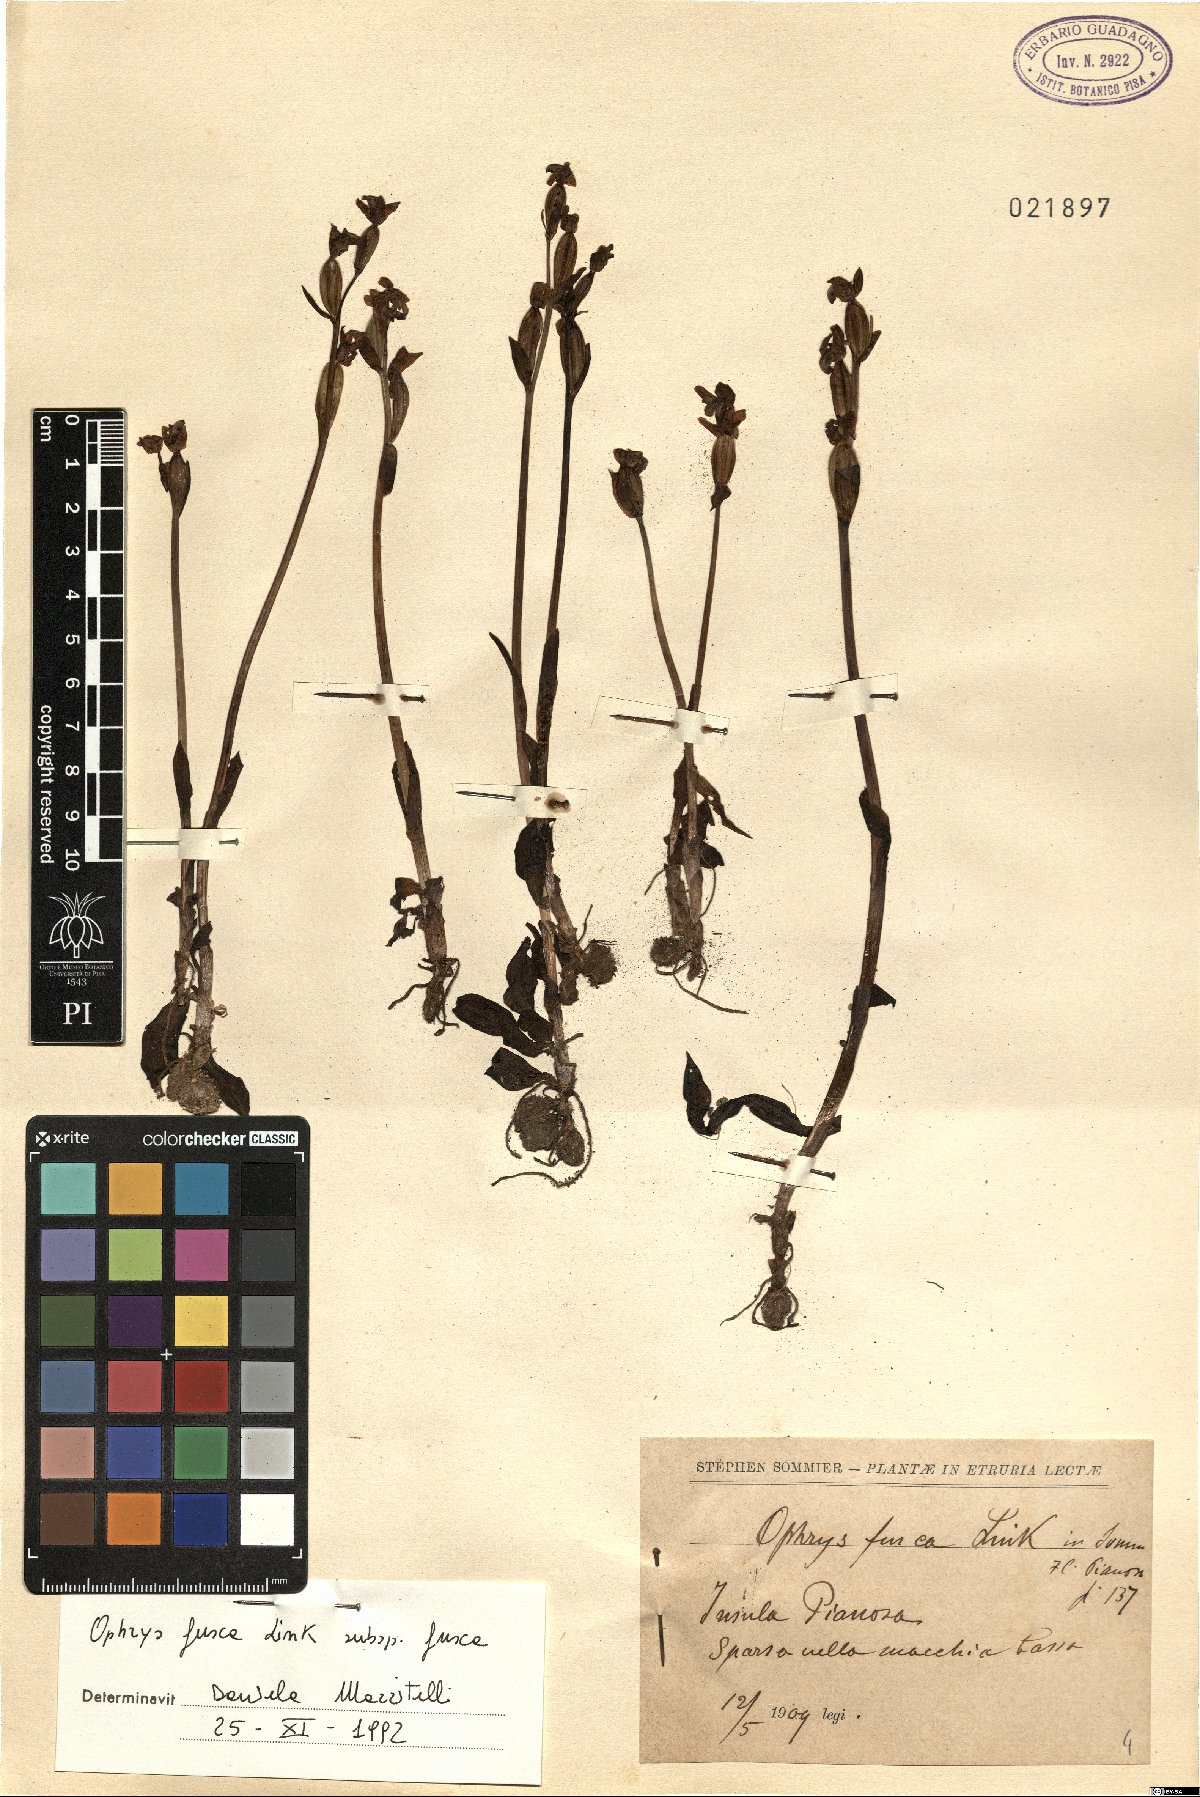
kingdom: Plantae
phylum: Tracheophyta
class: Liliopsida
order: Asparagales
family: Orchidaceae
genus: Ophrys
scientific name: Ophrys fusca
